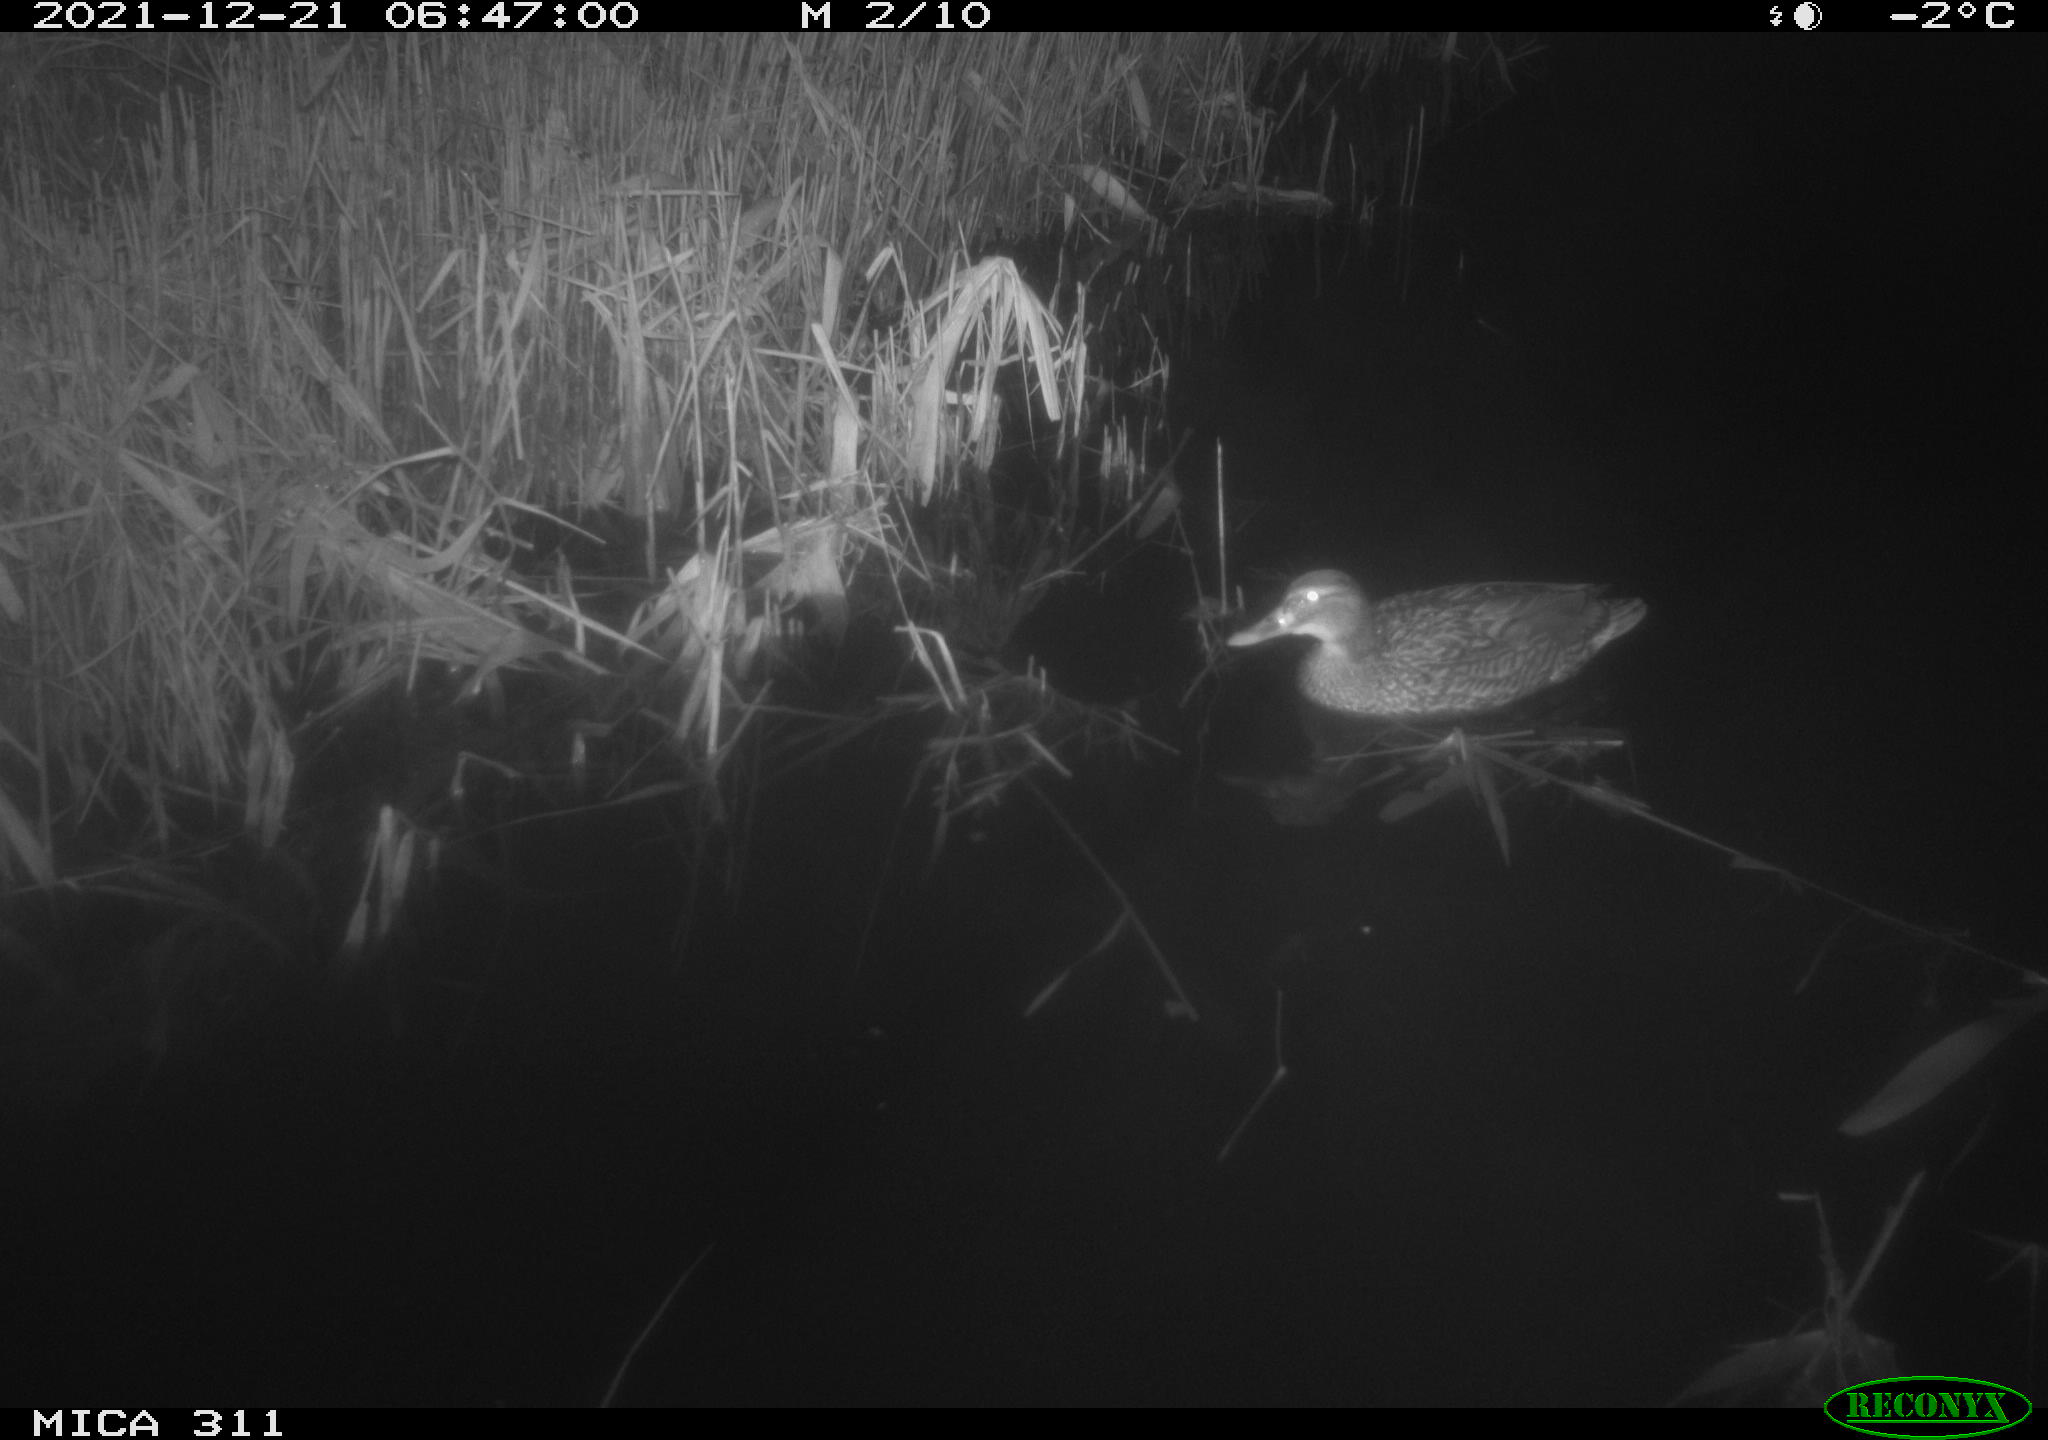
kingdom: Animalia
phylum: Chordata
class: Aves
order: Anseriformes
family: Anatidae
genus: Anas
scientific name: Anas platyrhynchos
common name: Mallard
